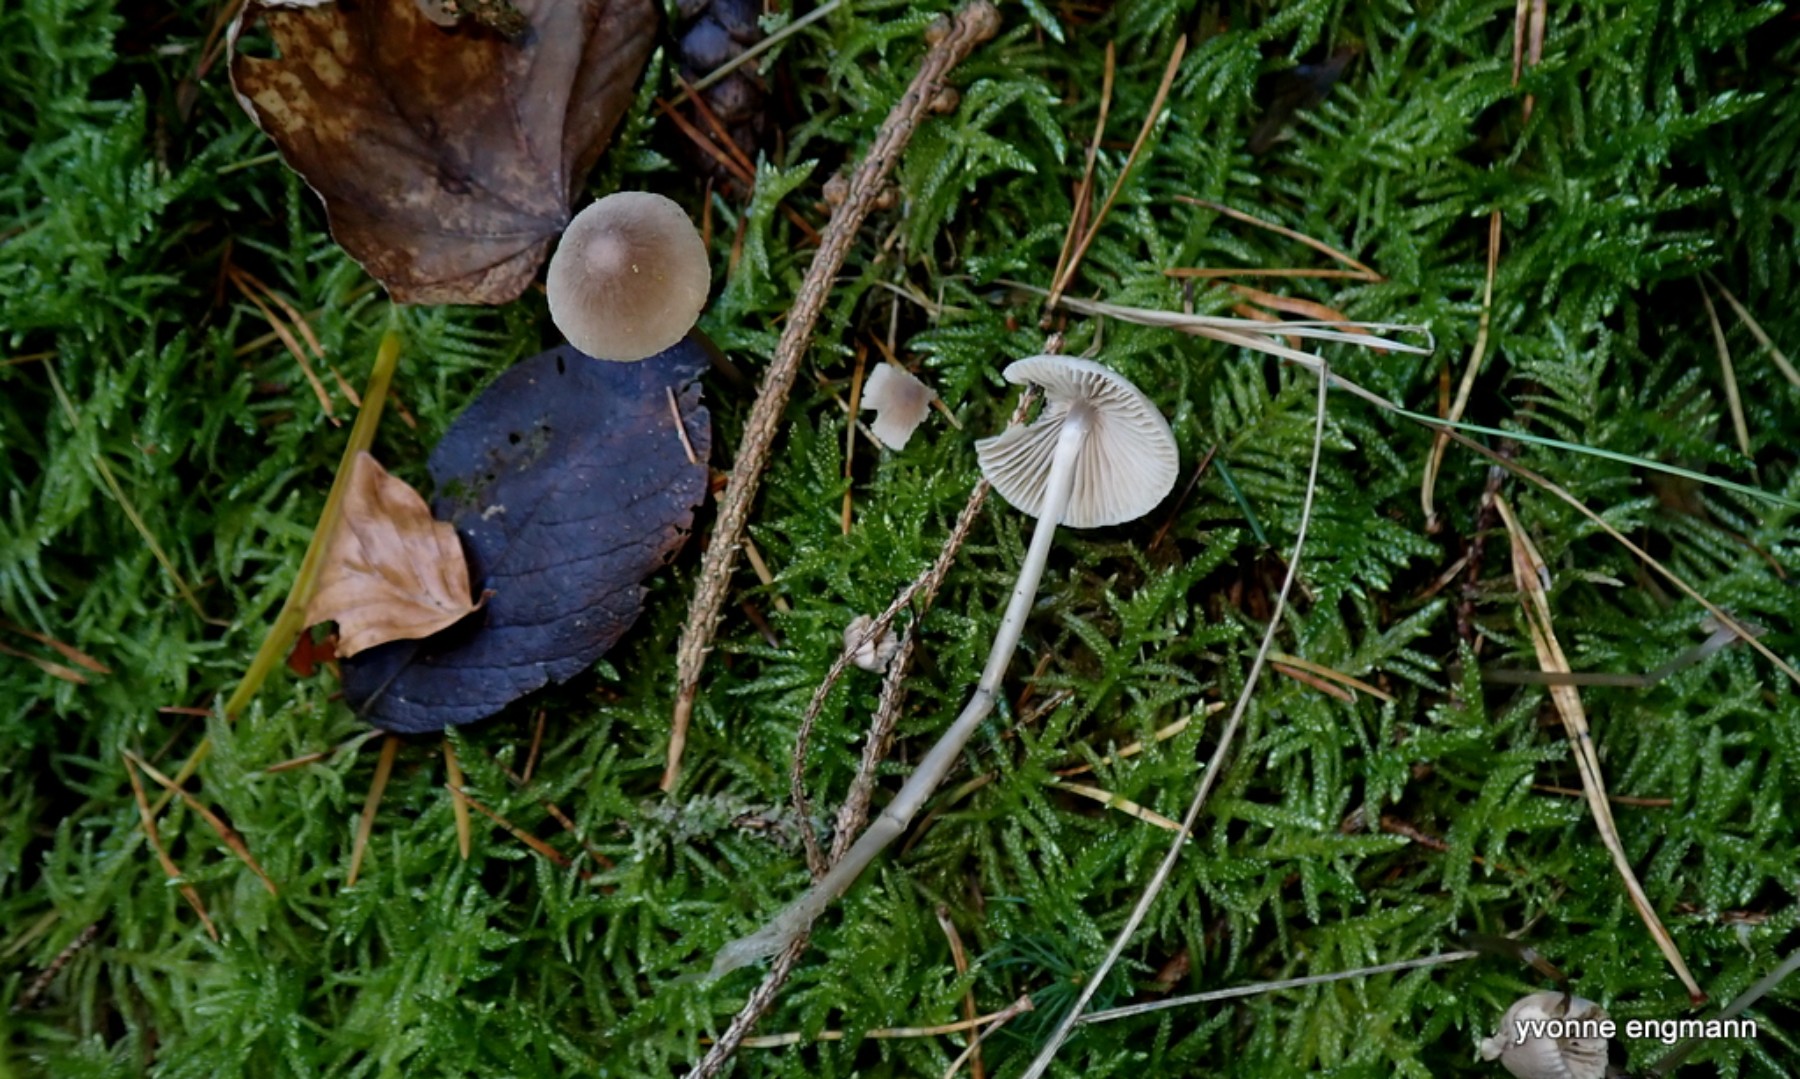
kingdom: Fungi
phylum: Basidiomycota
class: Agaricomycetes
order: Agaricales
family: Mycenaceae
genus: Mycena
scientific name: Mycena
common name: huesvamp
